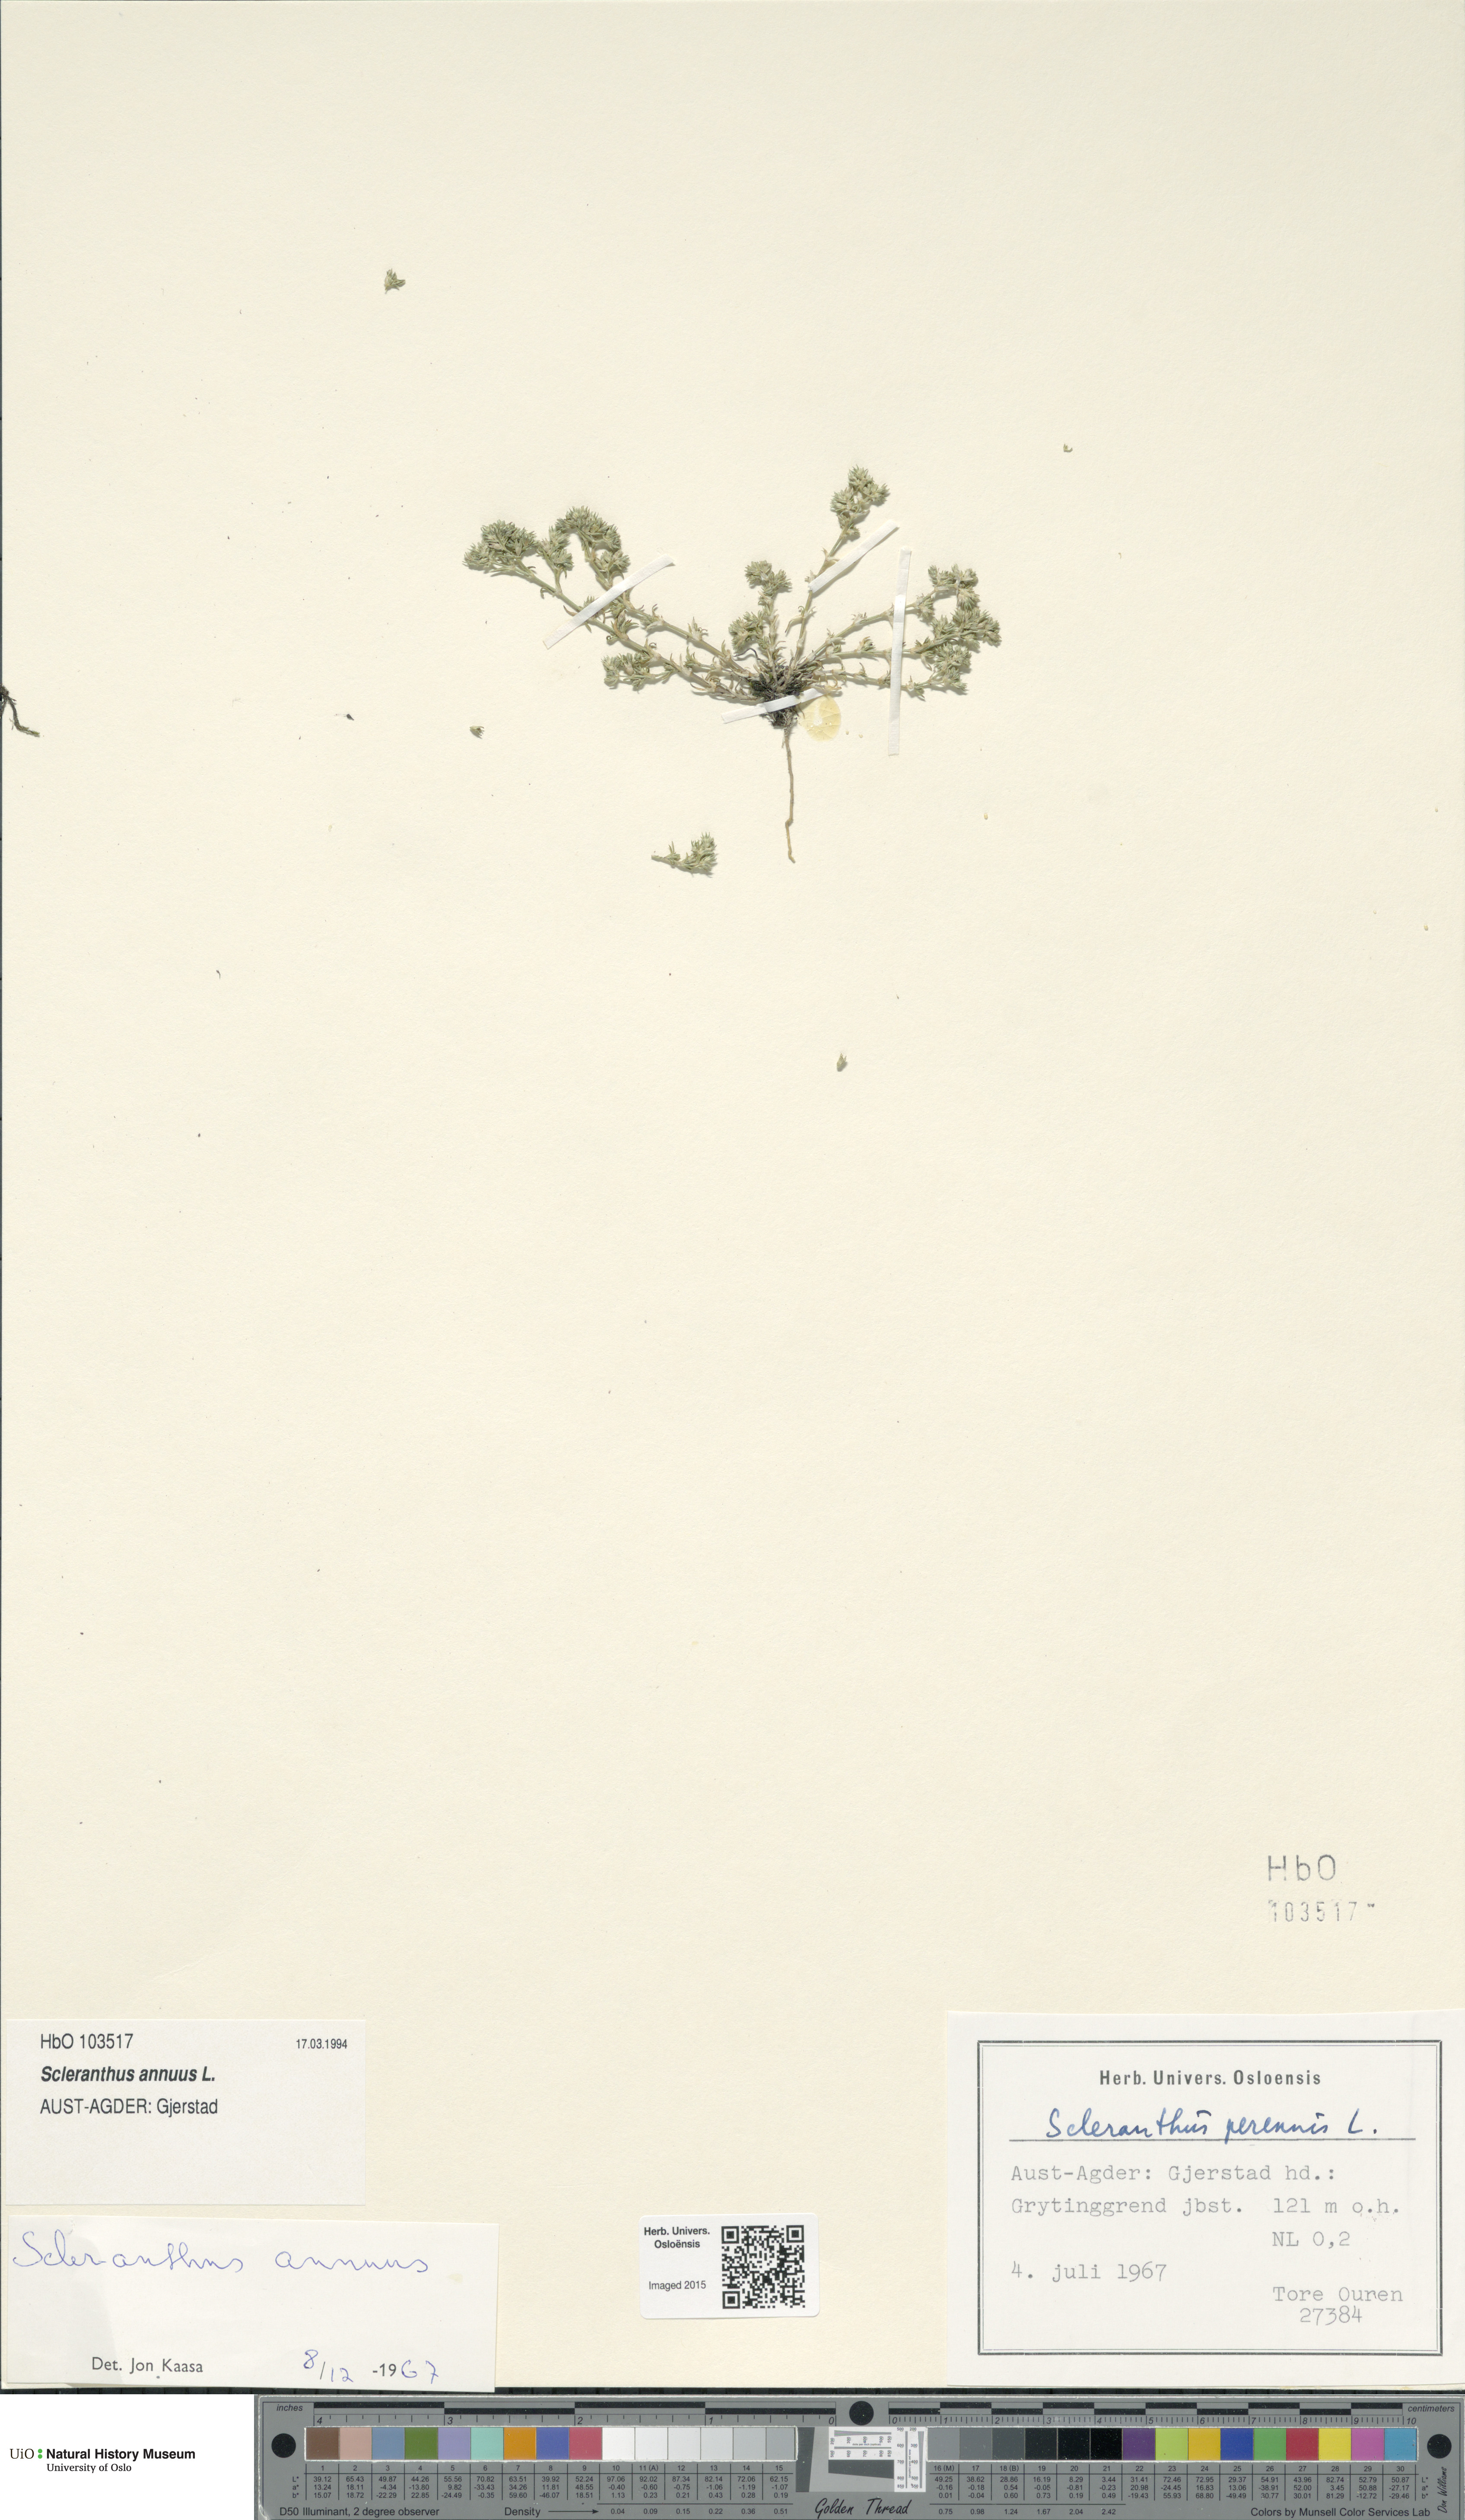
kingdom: Plantae
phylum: Tracheophyta
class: Magnoliopsida
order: Caryophyllales
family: Caryophyllaceae
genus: Scleranthus
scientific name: Scleranthus annuus
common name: Annual knawel
